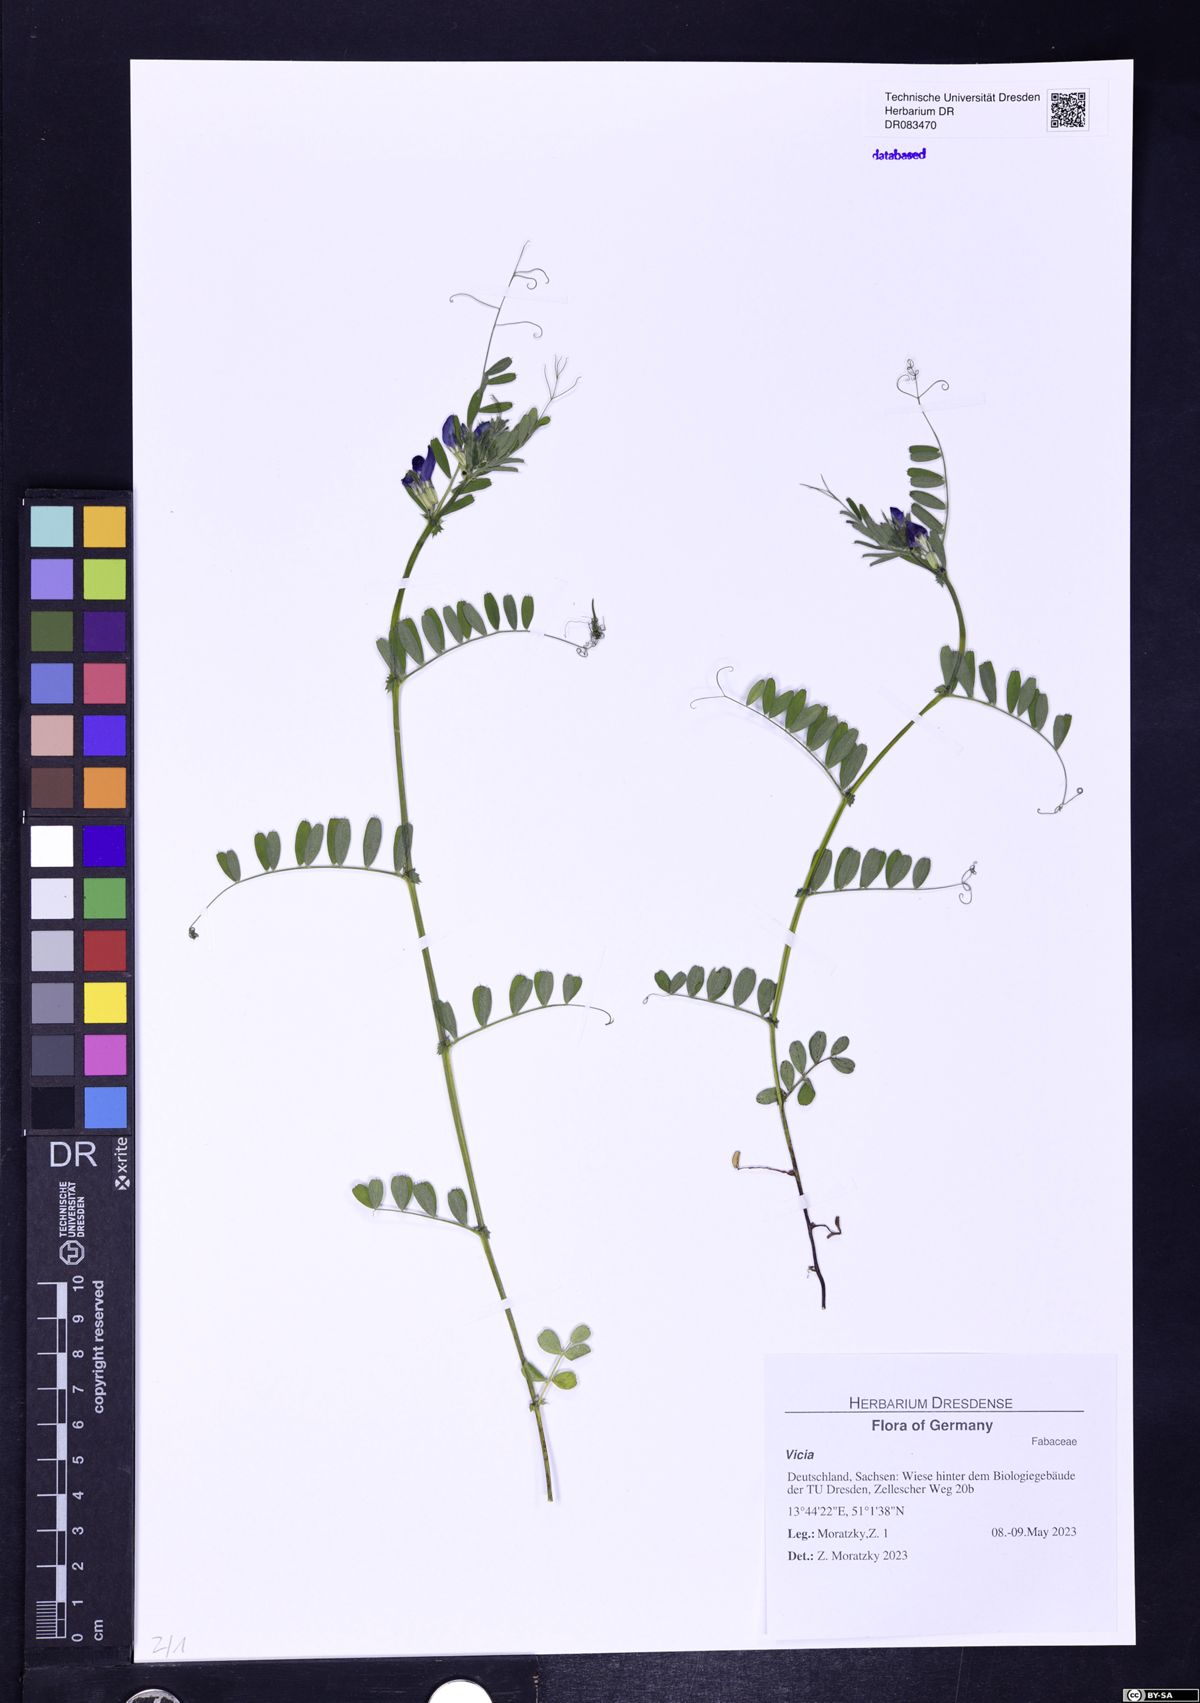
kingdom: Plantae
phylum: Tracheophyta
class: Magnoliopsida
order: Fabales
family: Fabaceae
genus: Vicia
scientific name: Vicia
